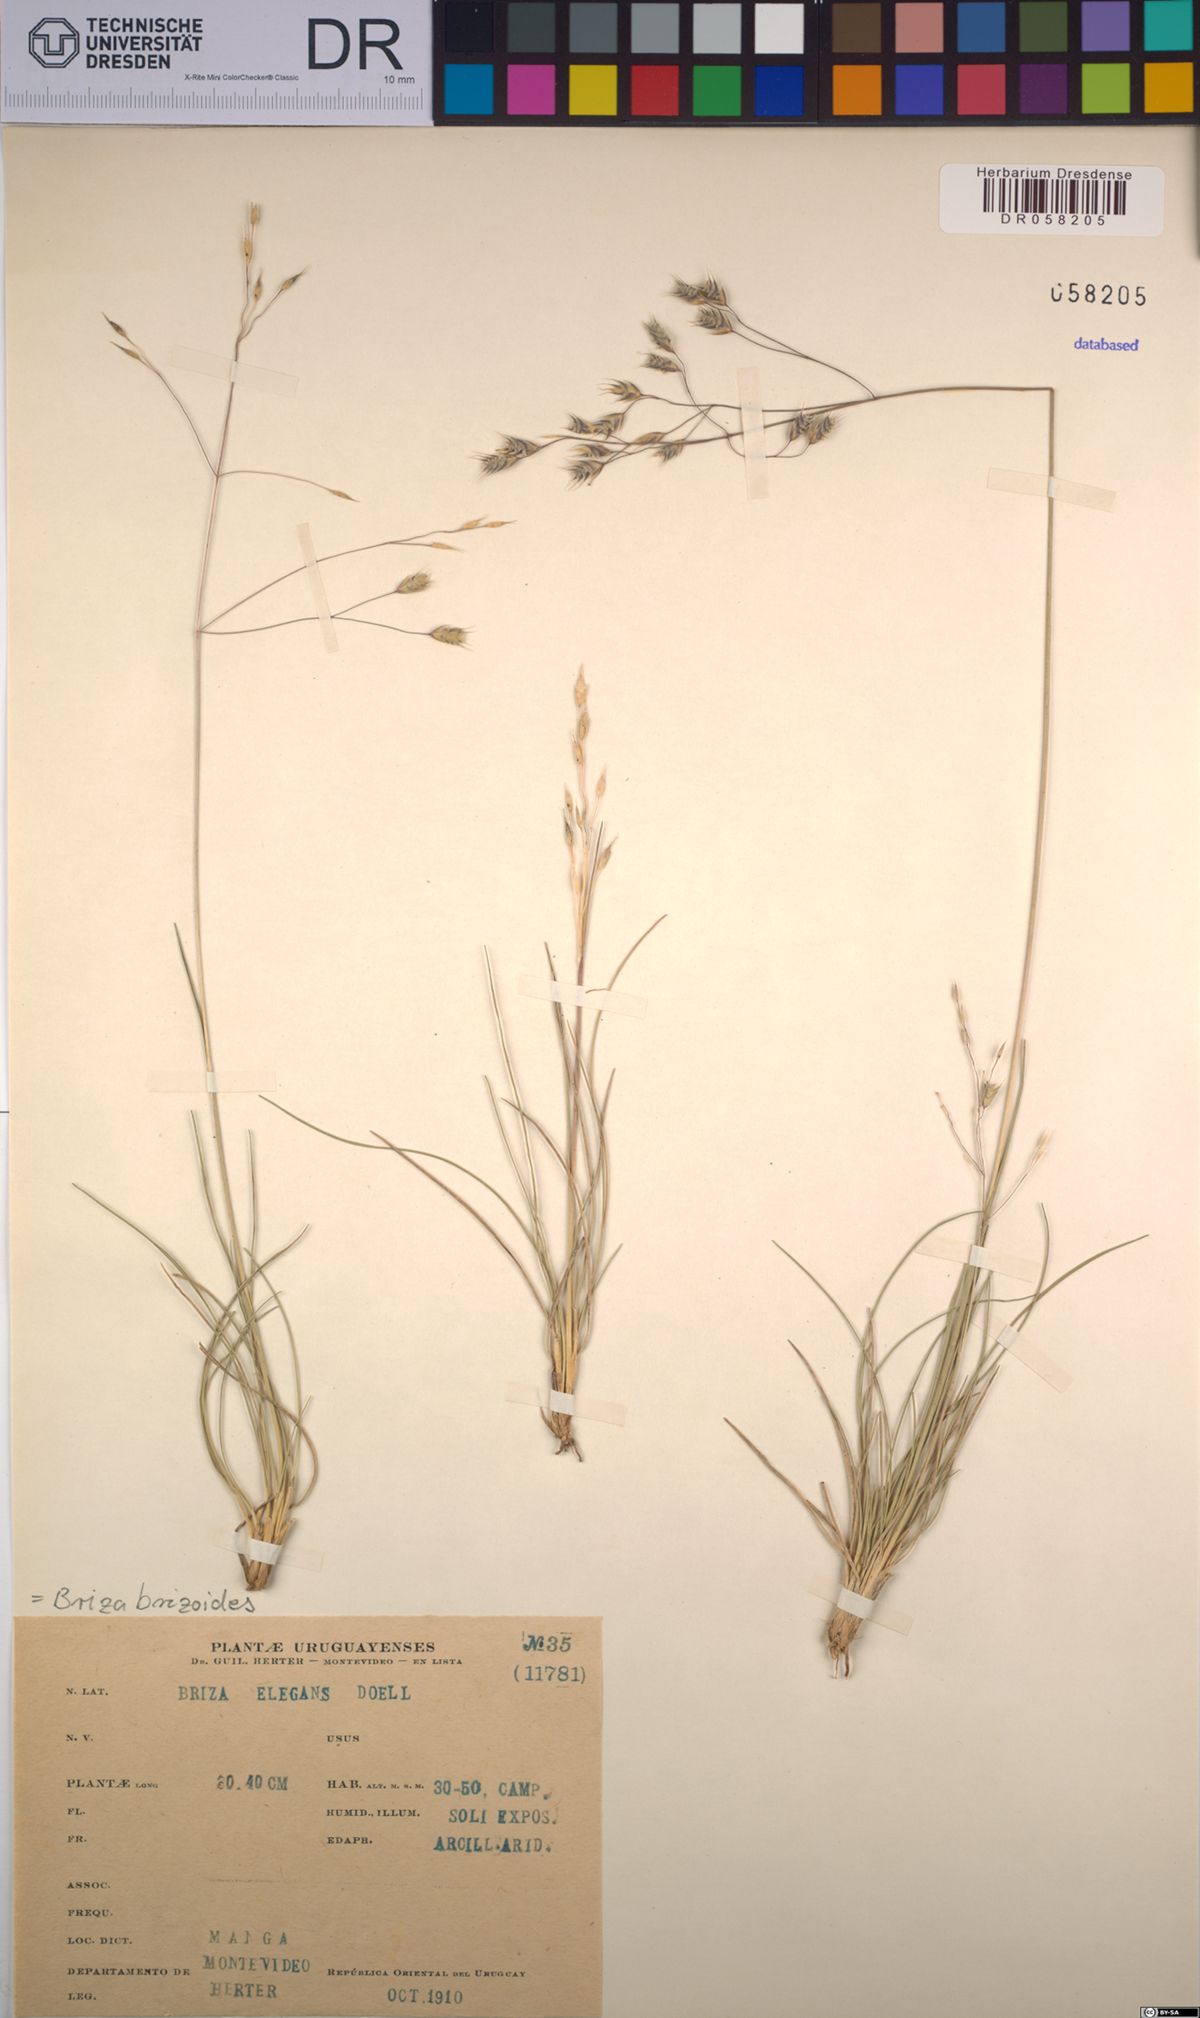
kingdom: Plantae
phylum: Tracheophyta
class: Liliopsida
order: Poales
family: Poaceae
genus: Calotheca
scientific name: Calotheca brizoides
